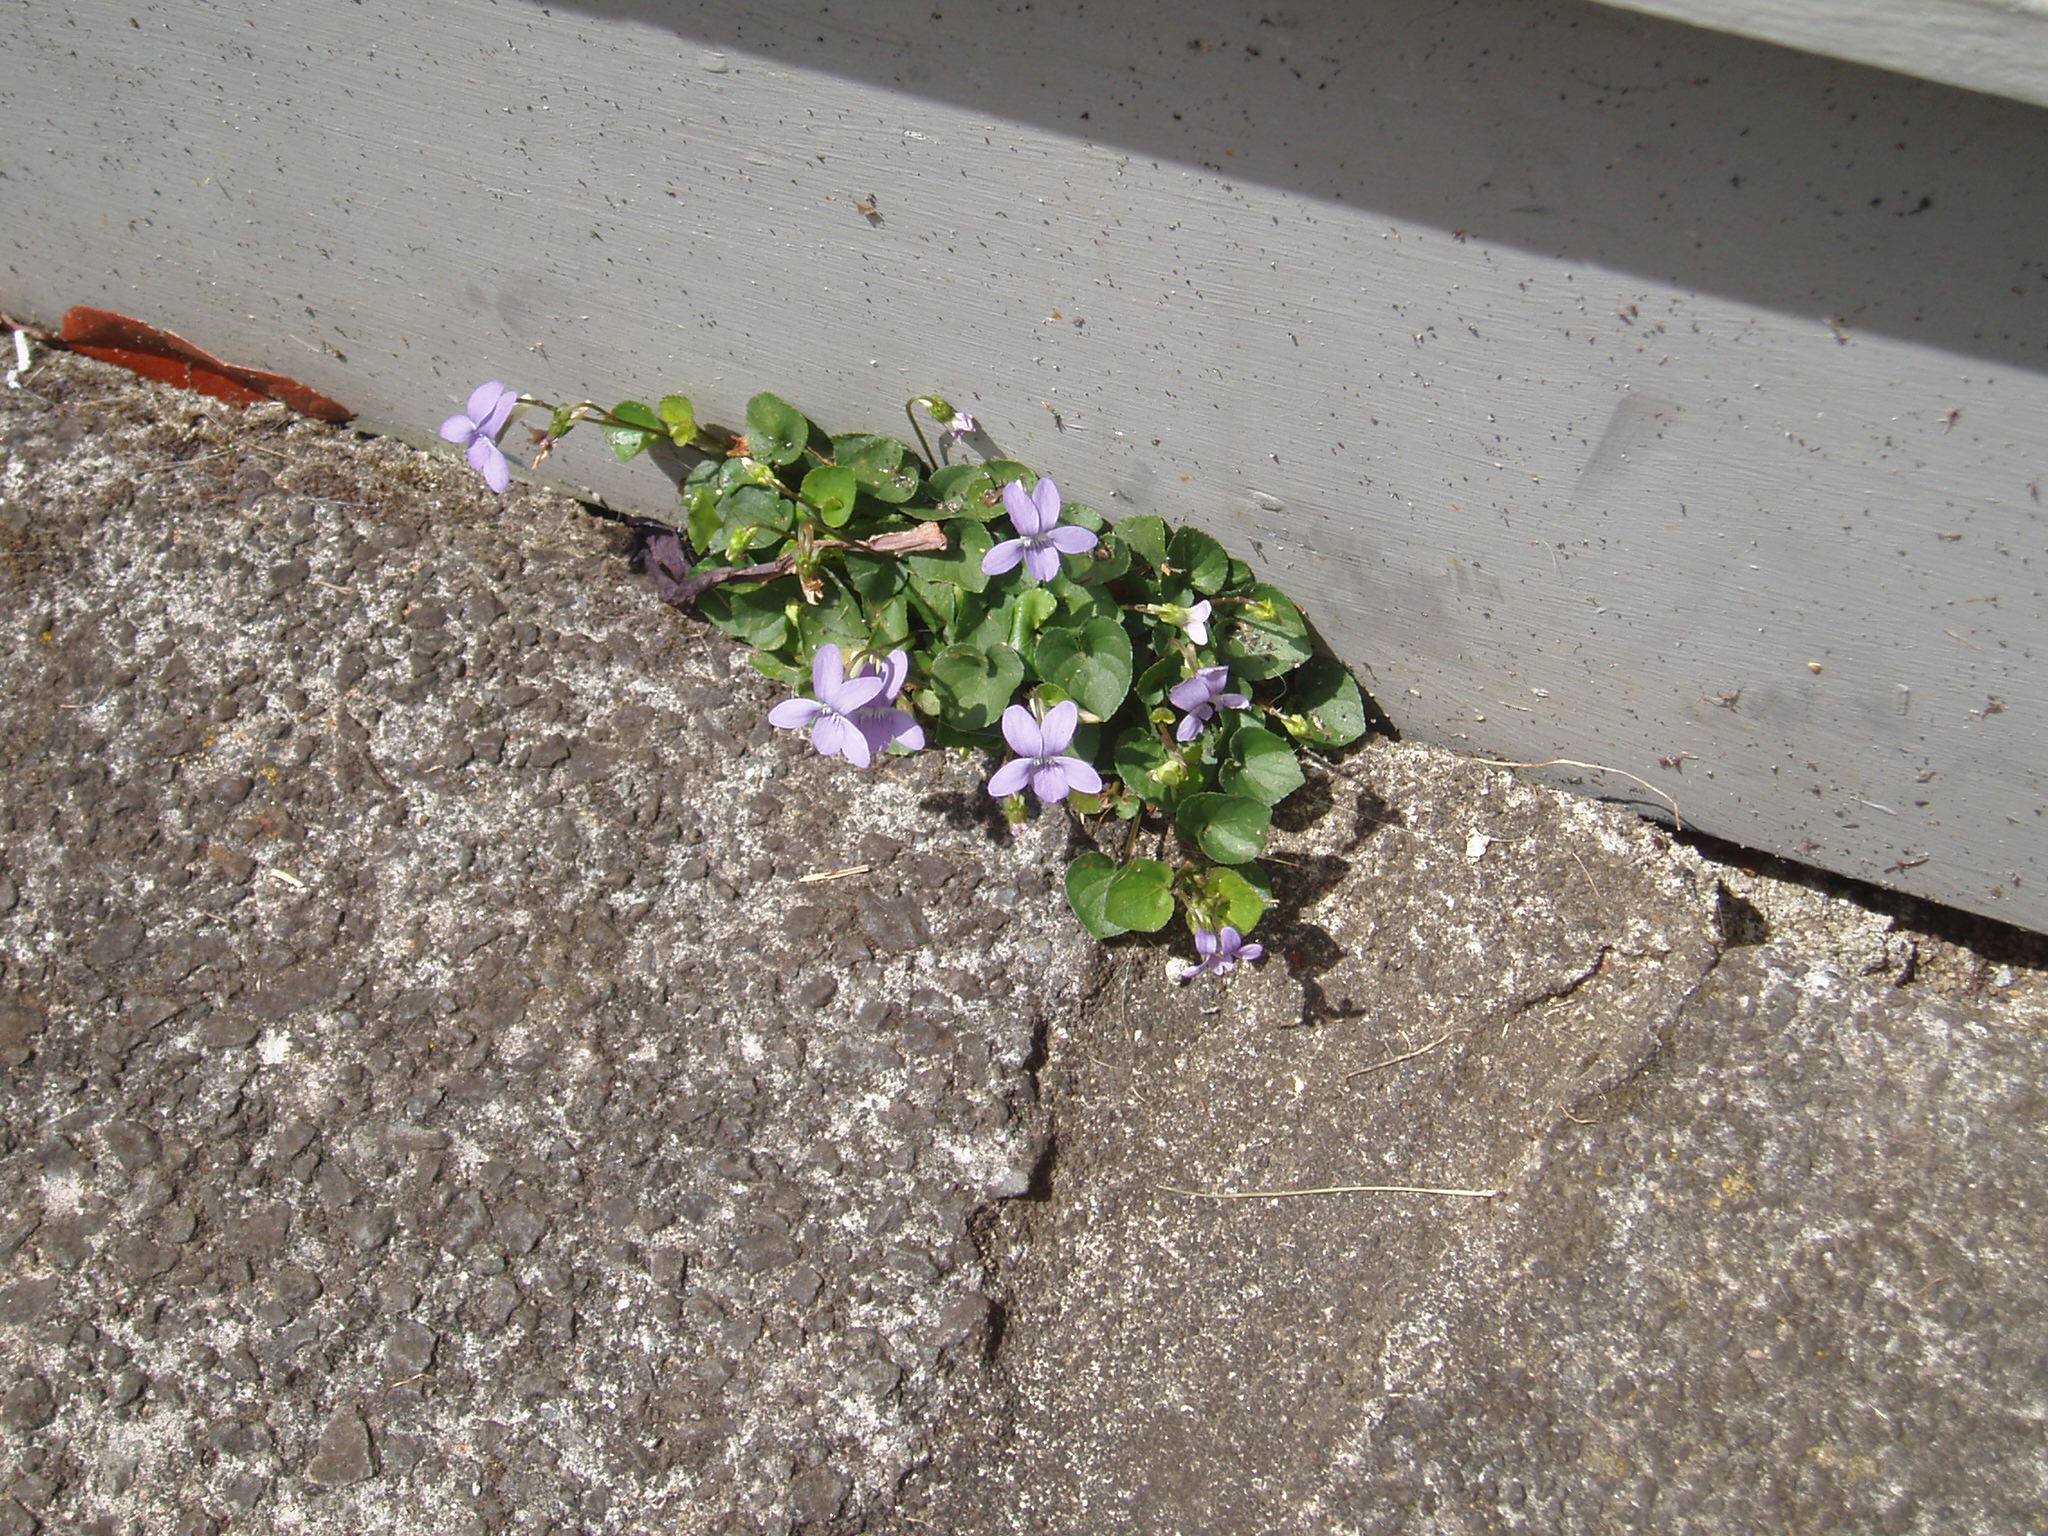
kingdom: Plantae
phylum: Tracheophyta
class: Magnoliopsida
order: Malpighiales
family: Violaceae
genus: Viola
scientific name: Viola riviniana
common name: Common dog-violet
